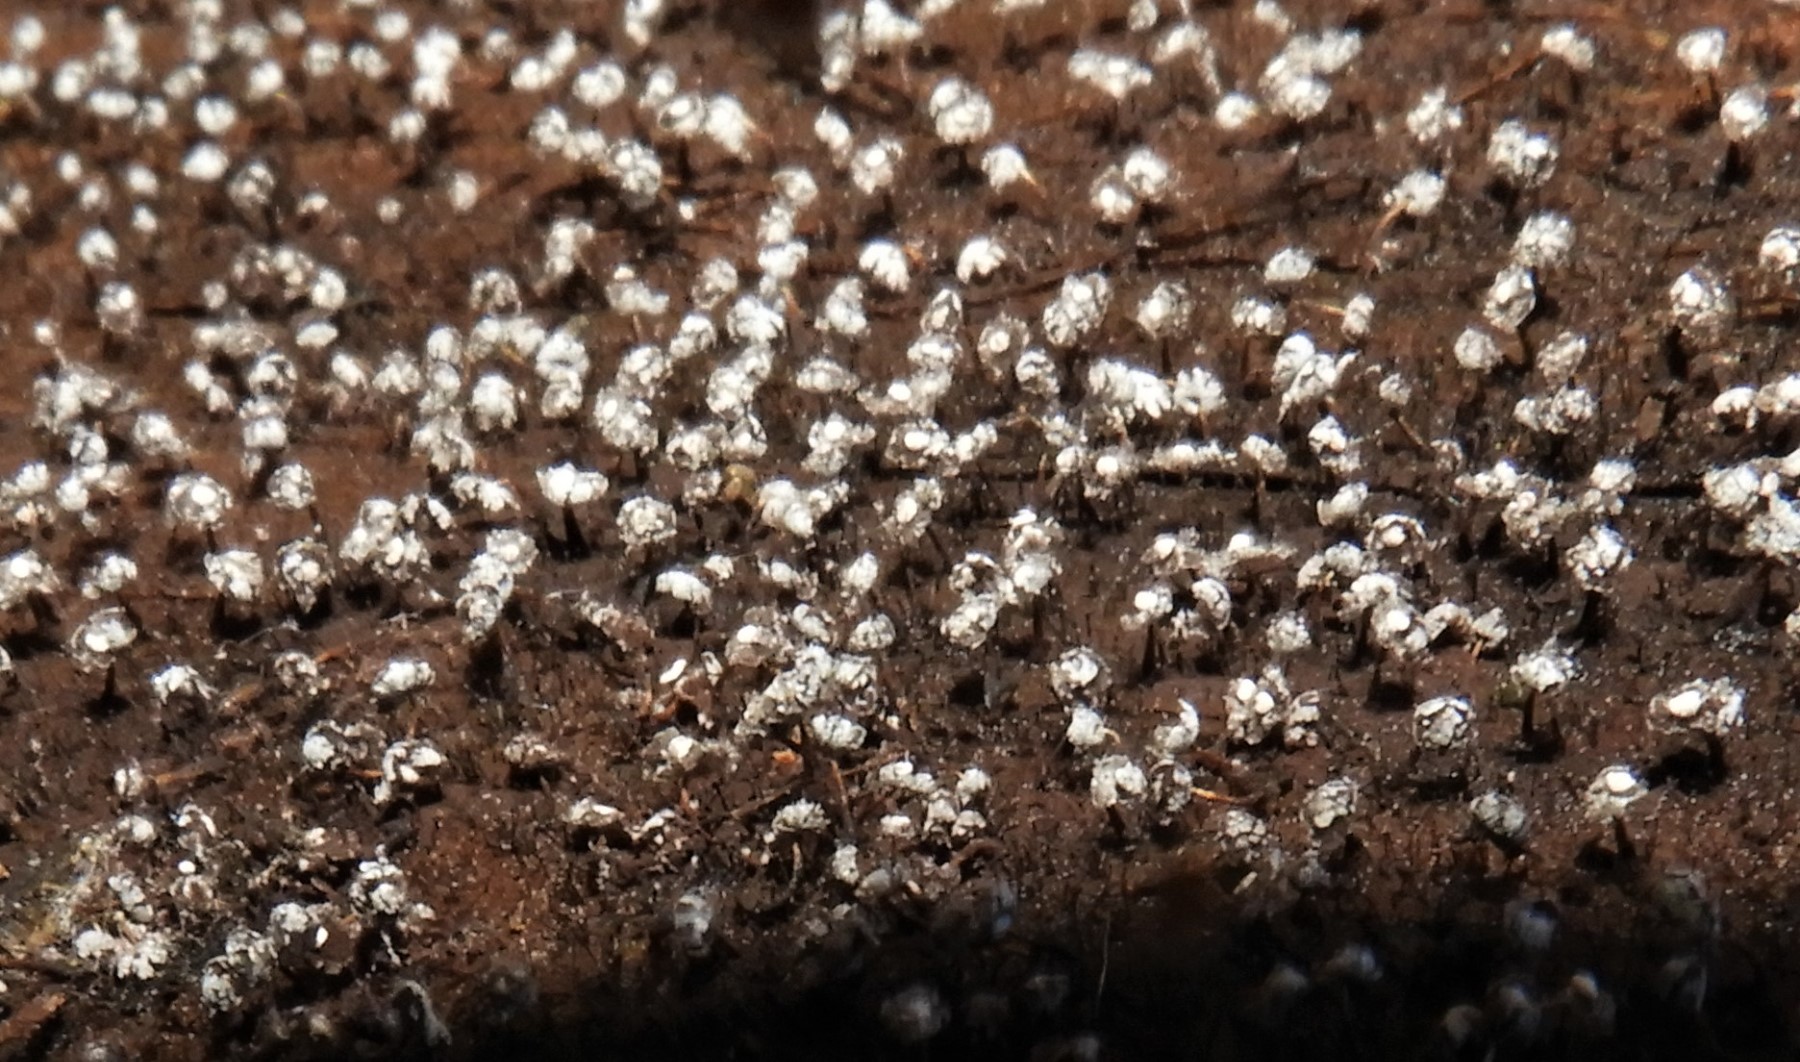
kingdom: Protozoa
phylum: Mycetozoa
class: Myxomycetes
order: Physarales
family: Physaraceae
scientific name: Physaraceae
